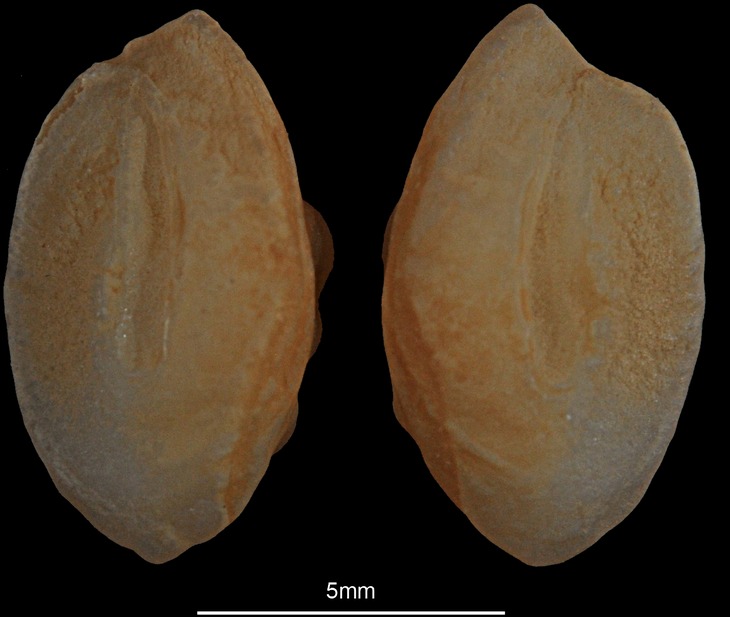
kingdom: Animalia
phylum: Chordata
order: Perciformes
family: Uranoscopidae
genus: Uranoscopus
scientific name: Uranoscopus scaber
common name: Stargazer
